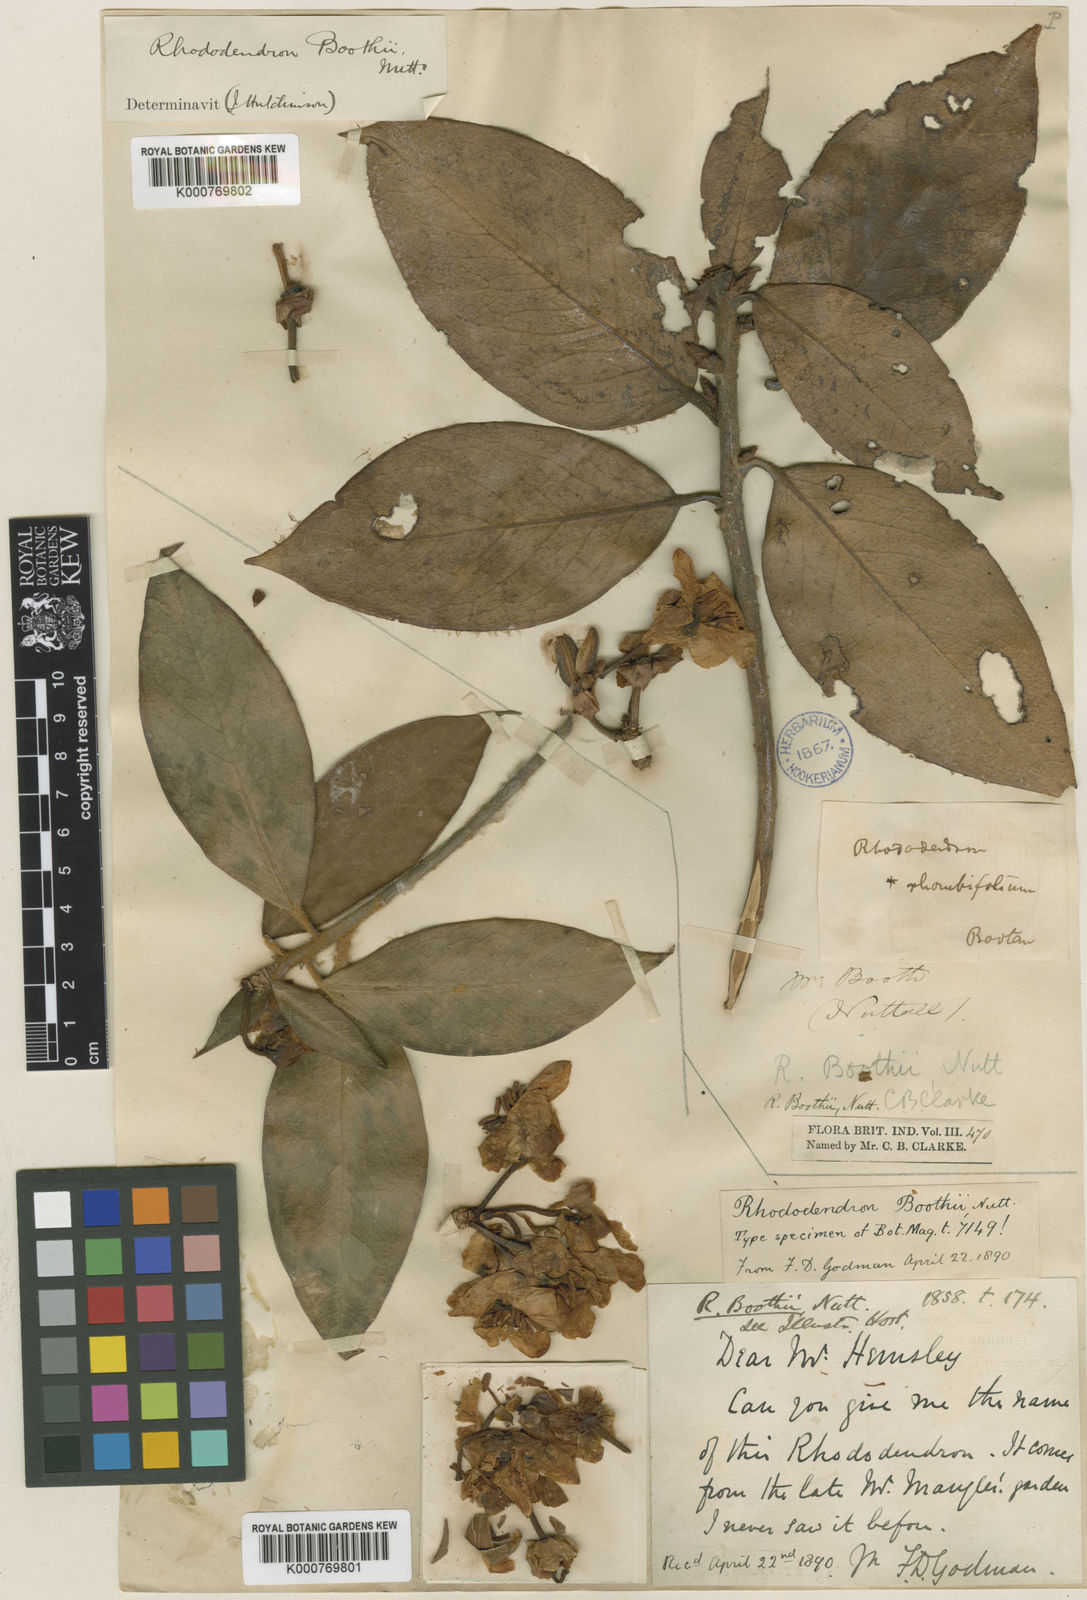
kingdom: Plantae
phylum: Tracheophyta
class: Magnoliopsida
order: Ericales
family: Ericaceae
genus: Rhododendron
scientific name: Rhododendron boothii
